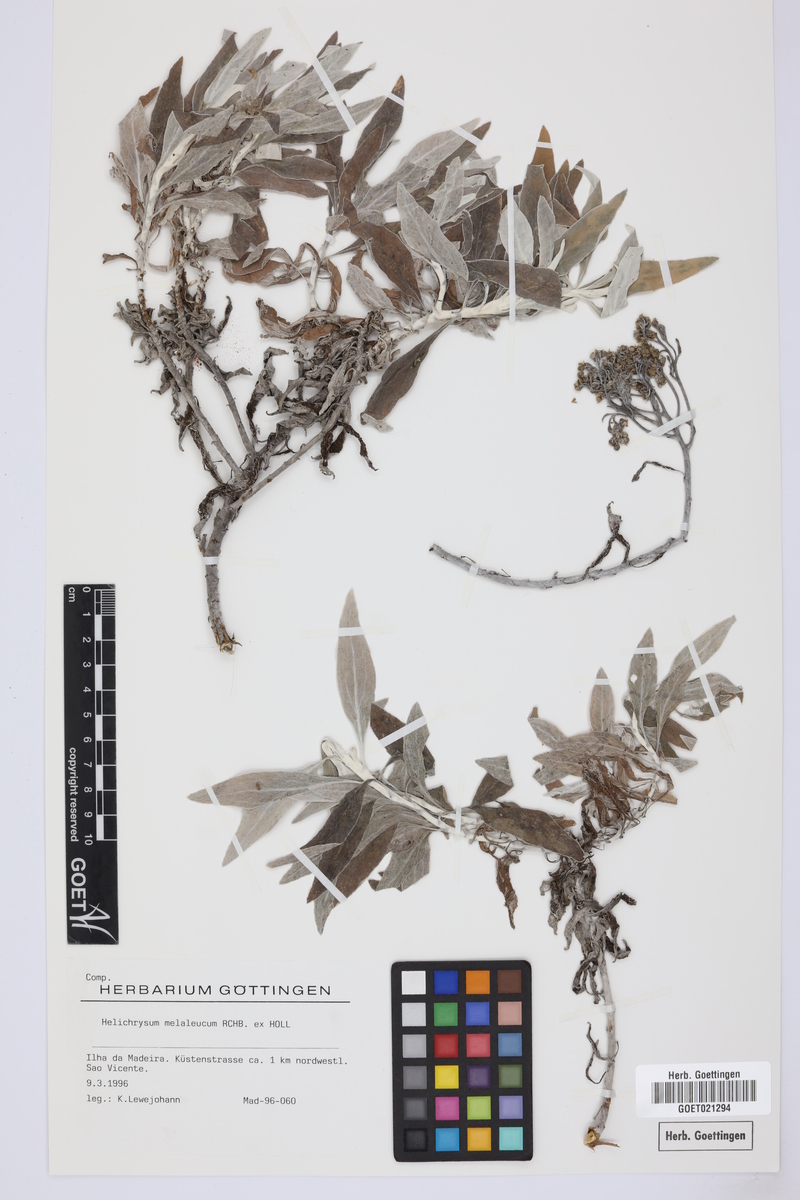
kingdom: Plantae
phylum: Tracheophyta
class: Magnoliopsida
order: Asterales
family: Asteraceae
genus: Helichrysum
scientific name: Helichrysum melaleucum
